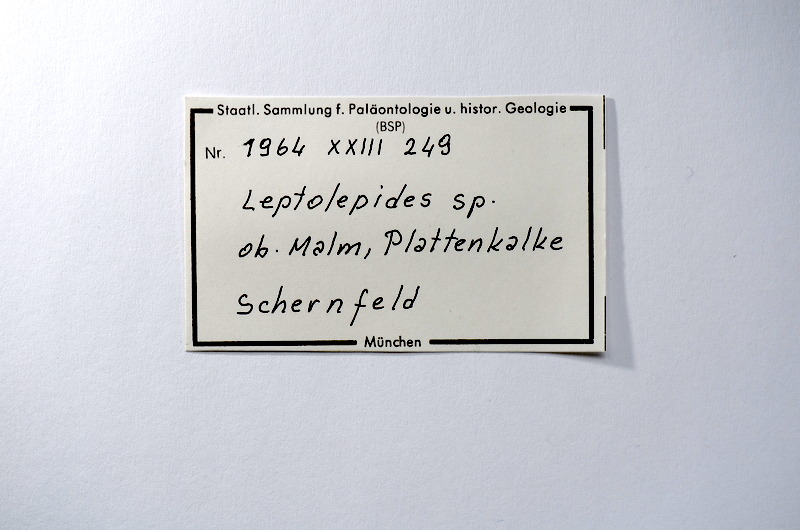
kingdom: Animalia
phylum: Chordata
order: Salmoniformes
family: Orthogonikleithridae
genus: Leptolepides
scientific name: Leptolepides
